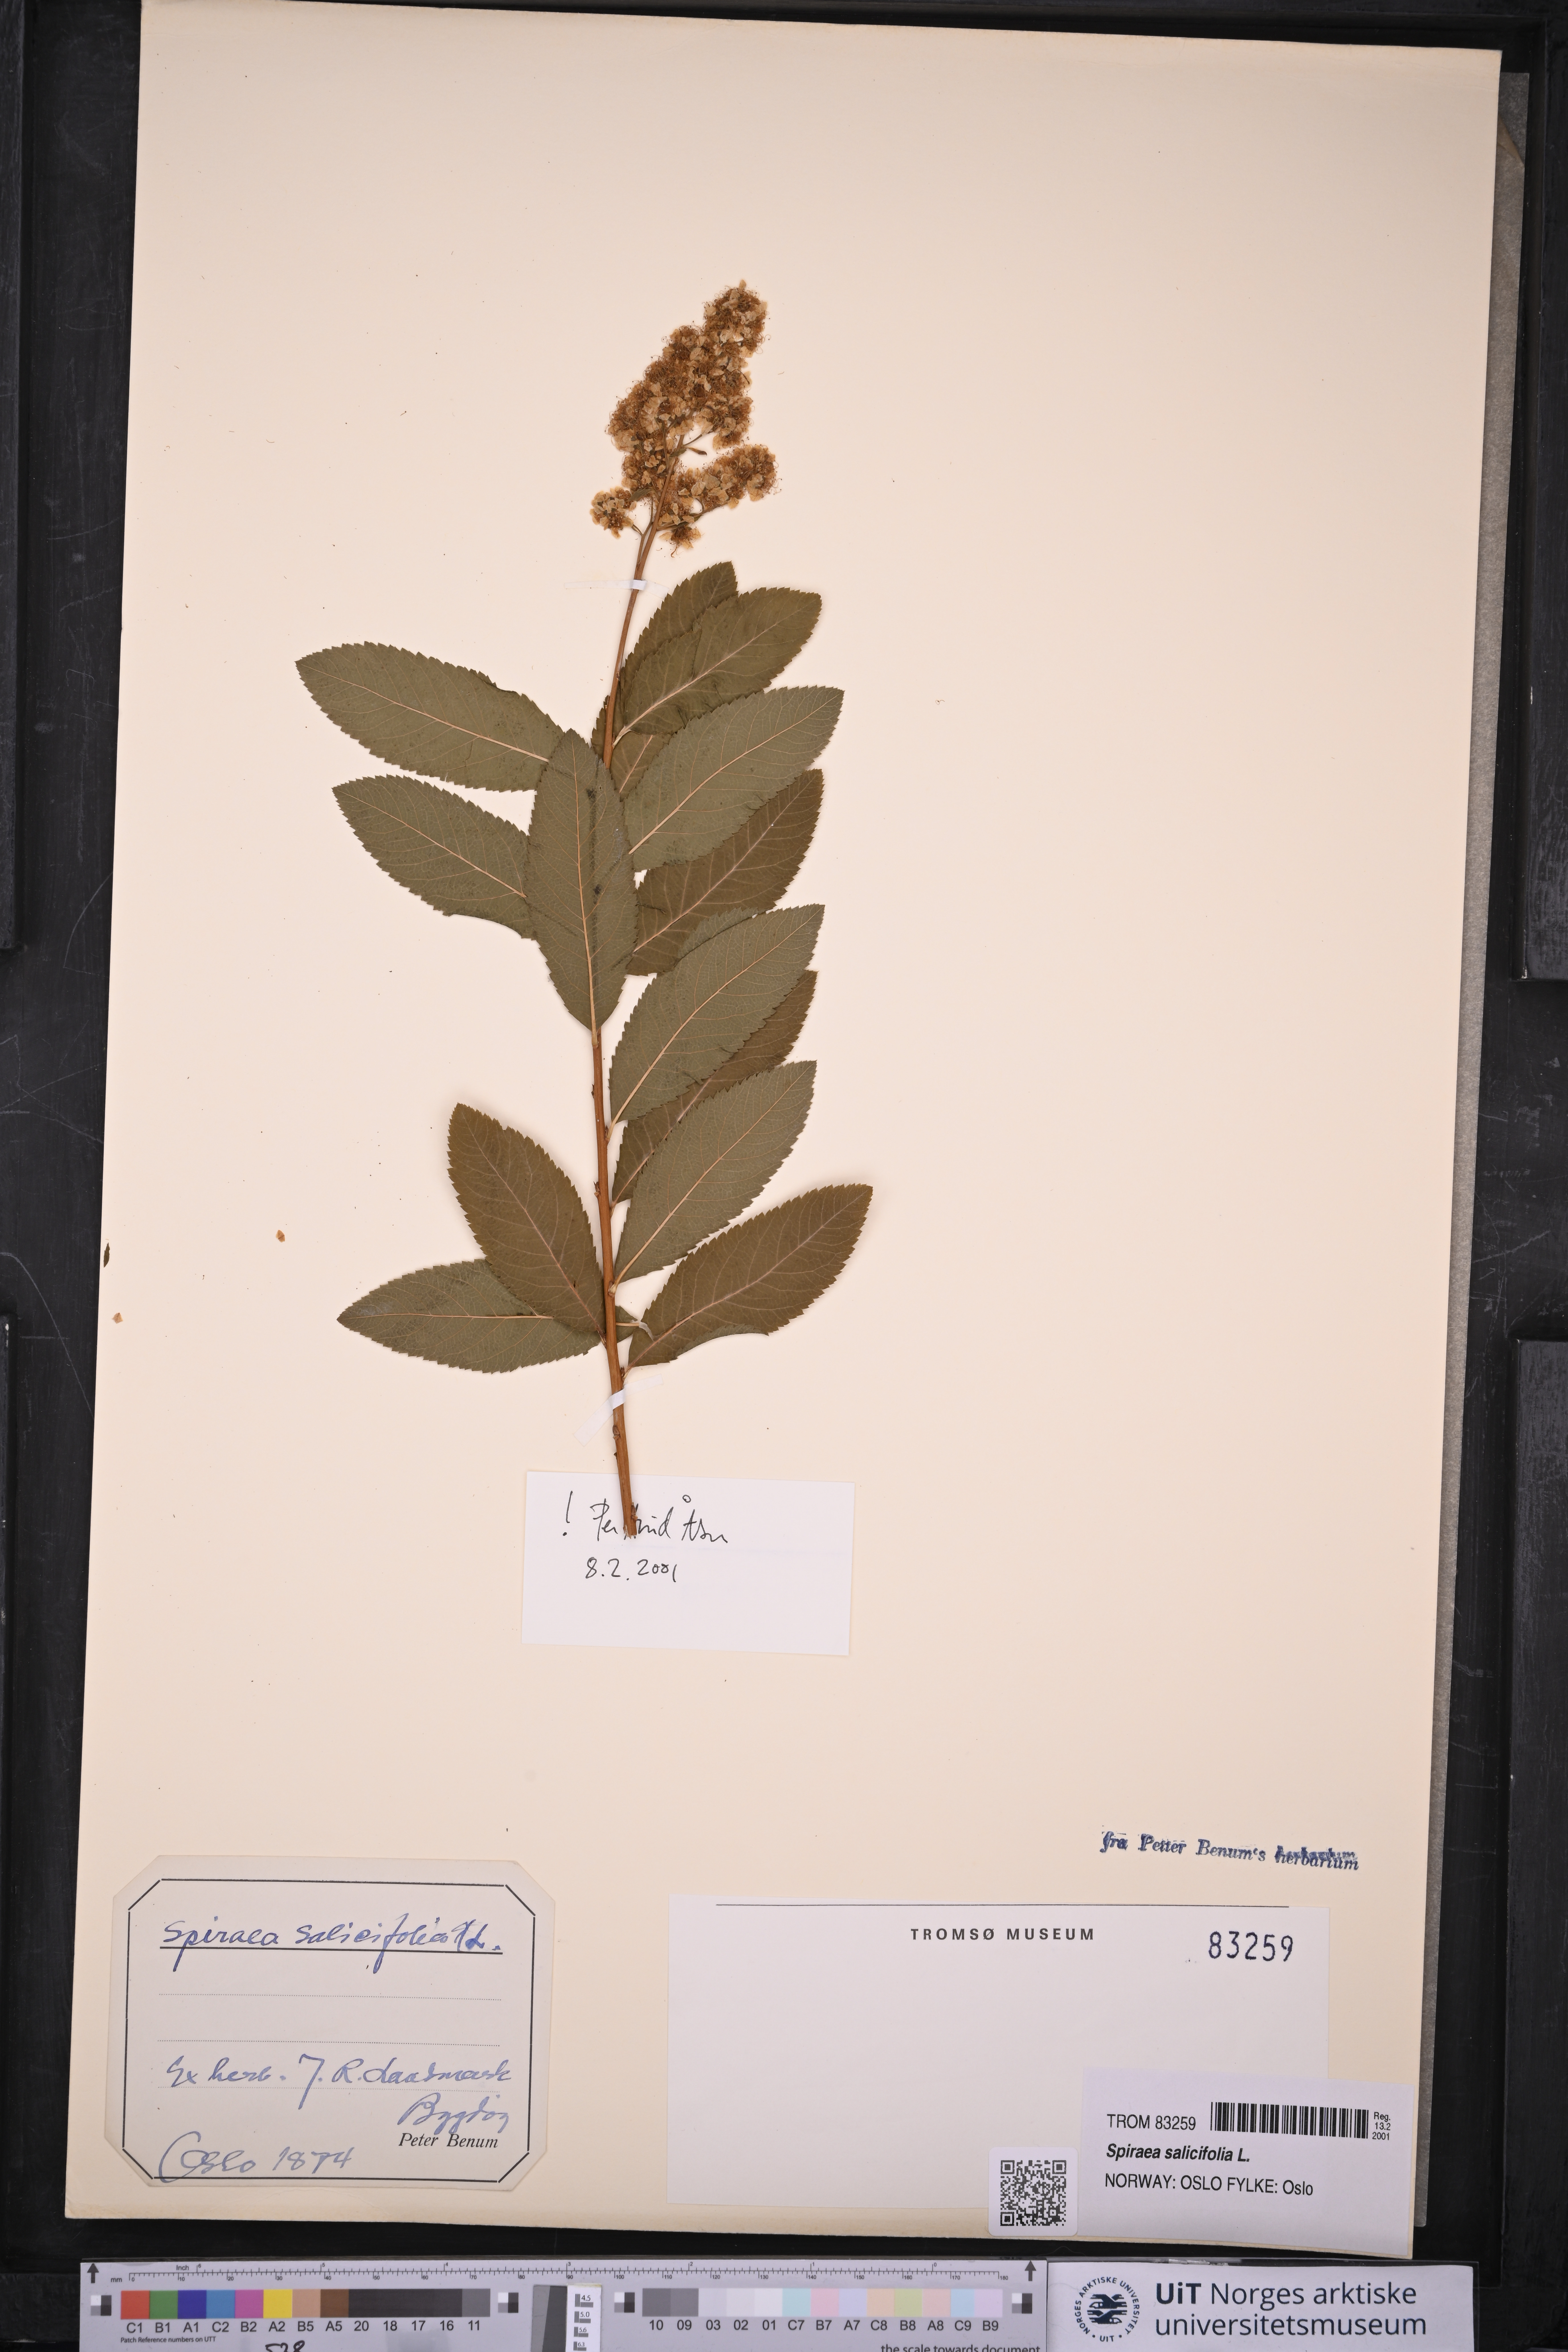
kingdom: Plantae
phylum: Tracheophyta
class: Magnoliopsida
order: Rosales
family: Rosaceae
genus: Spiraea
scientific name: Spiraea salicifolia
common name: Bridewort
